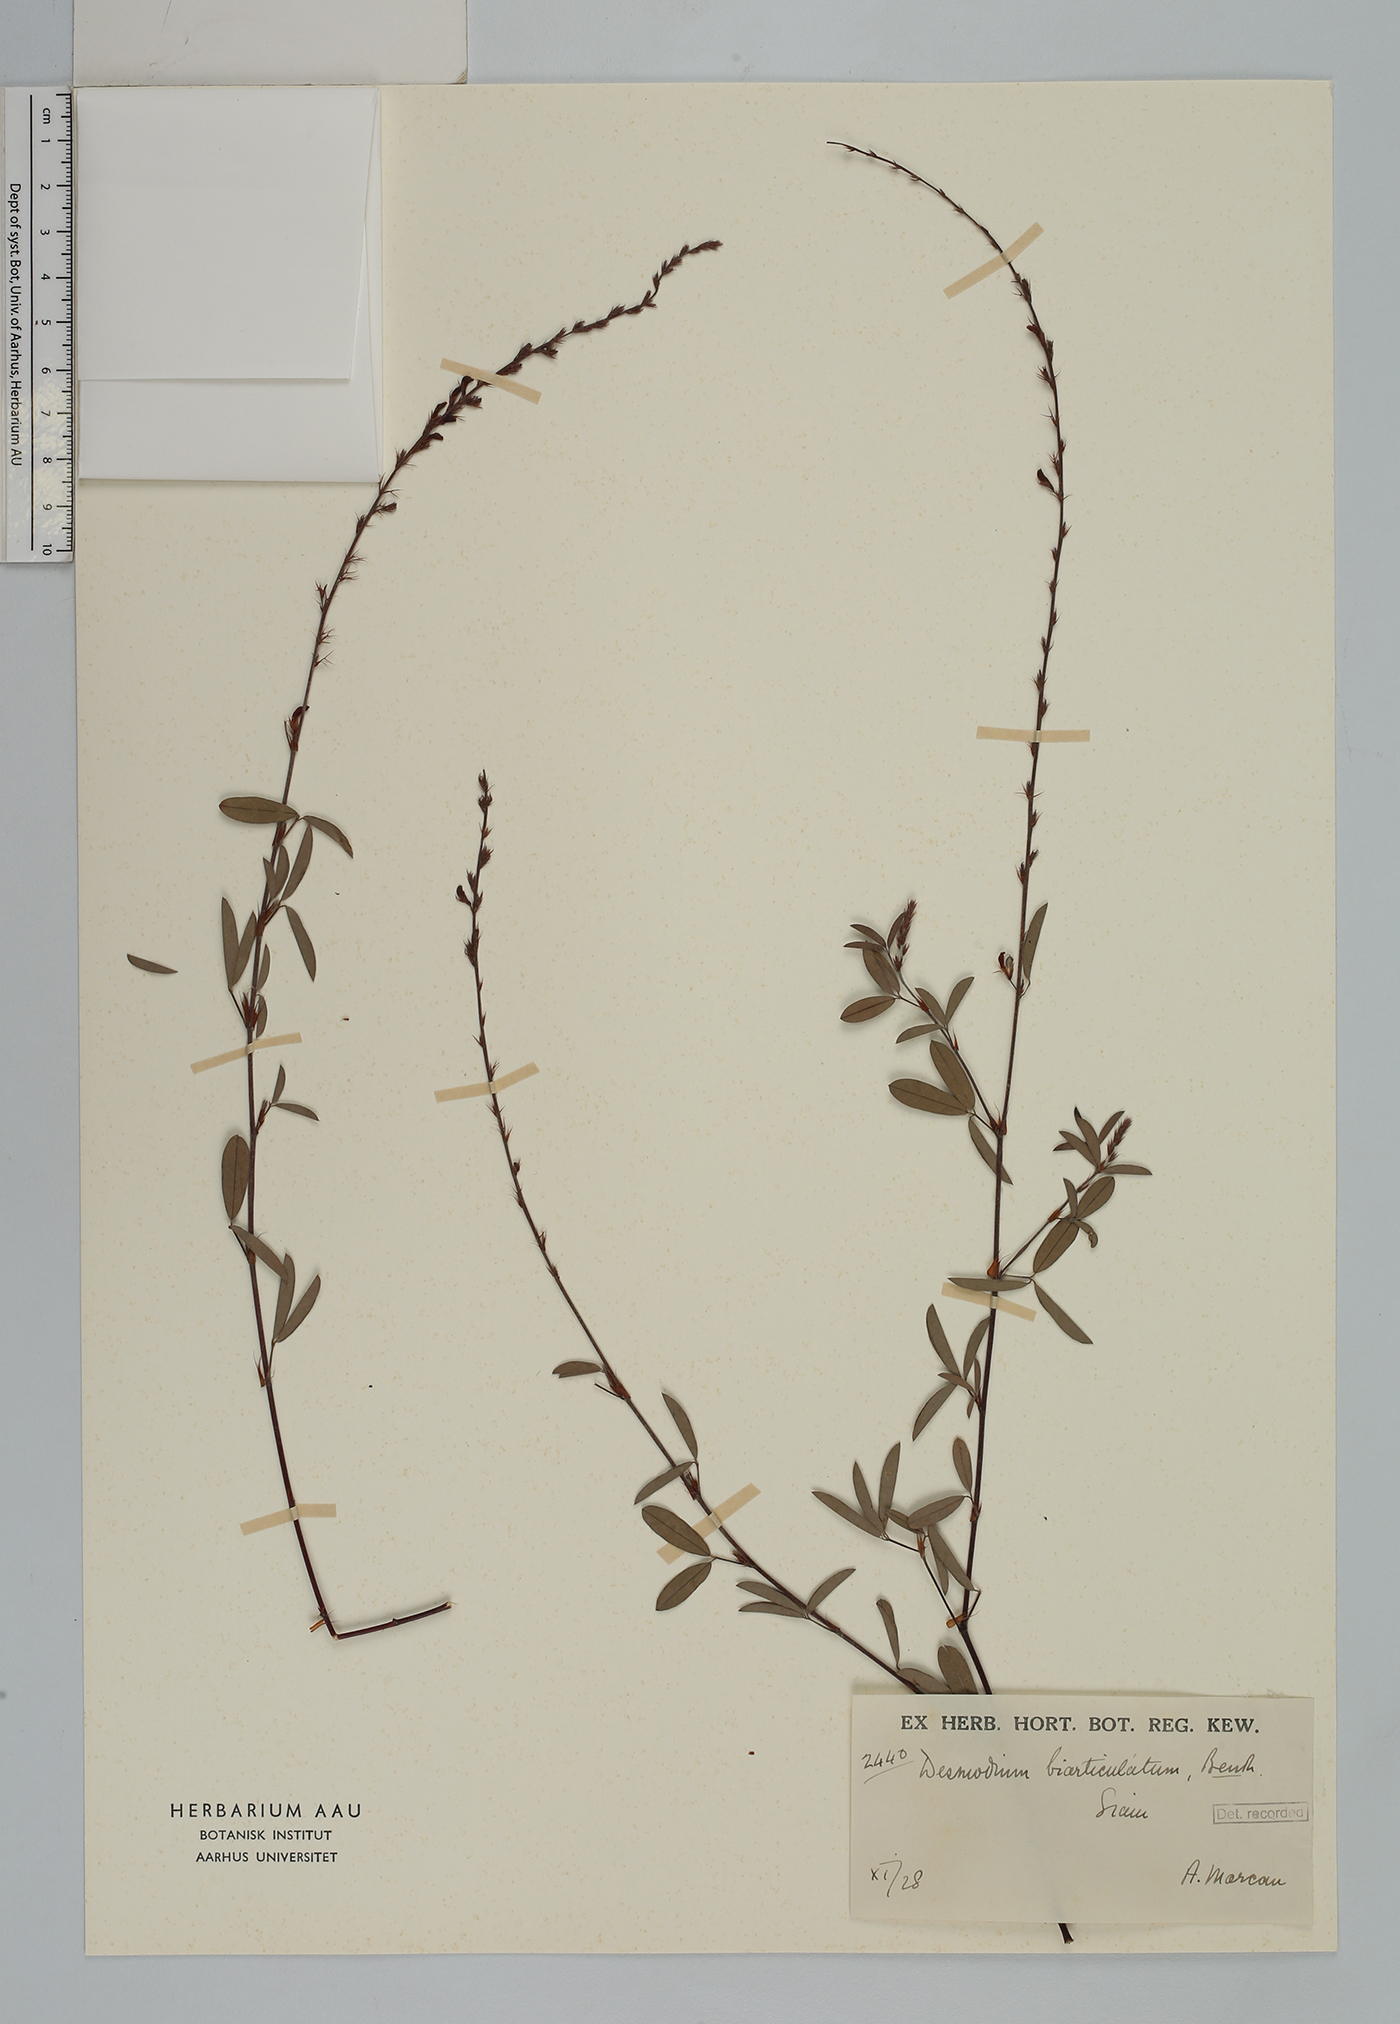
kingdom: Plantae
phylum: Tracheophyta
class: Magnoliopsida
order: Fabales
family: Fabaceae
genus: Aphyllodium
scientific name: Aphyllodium biarticulatum
